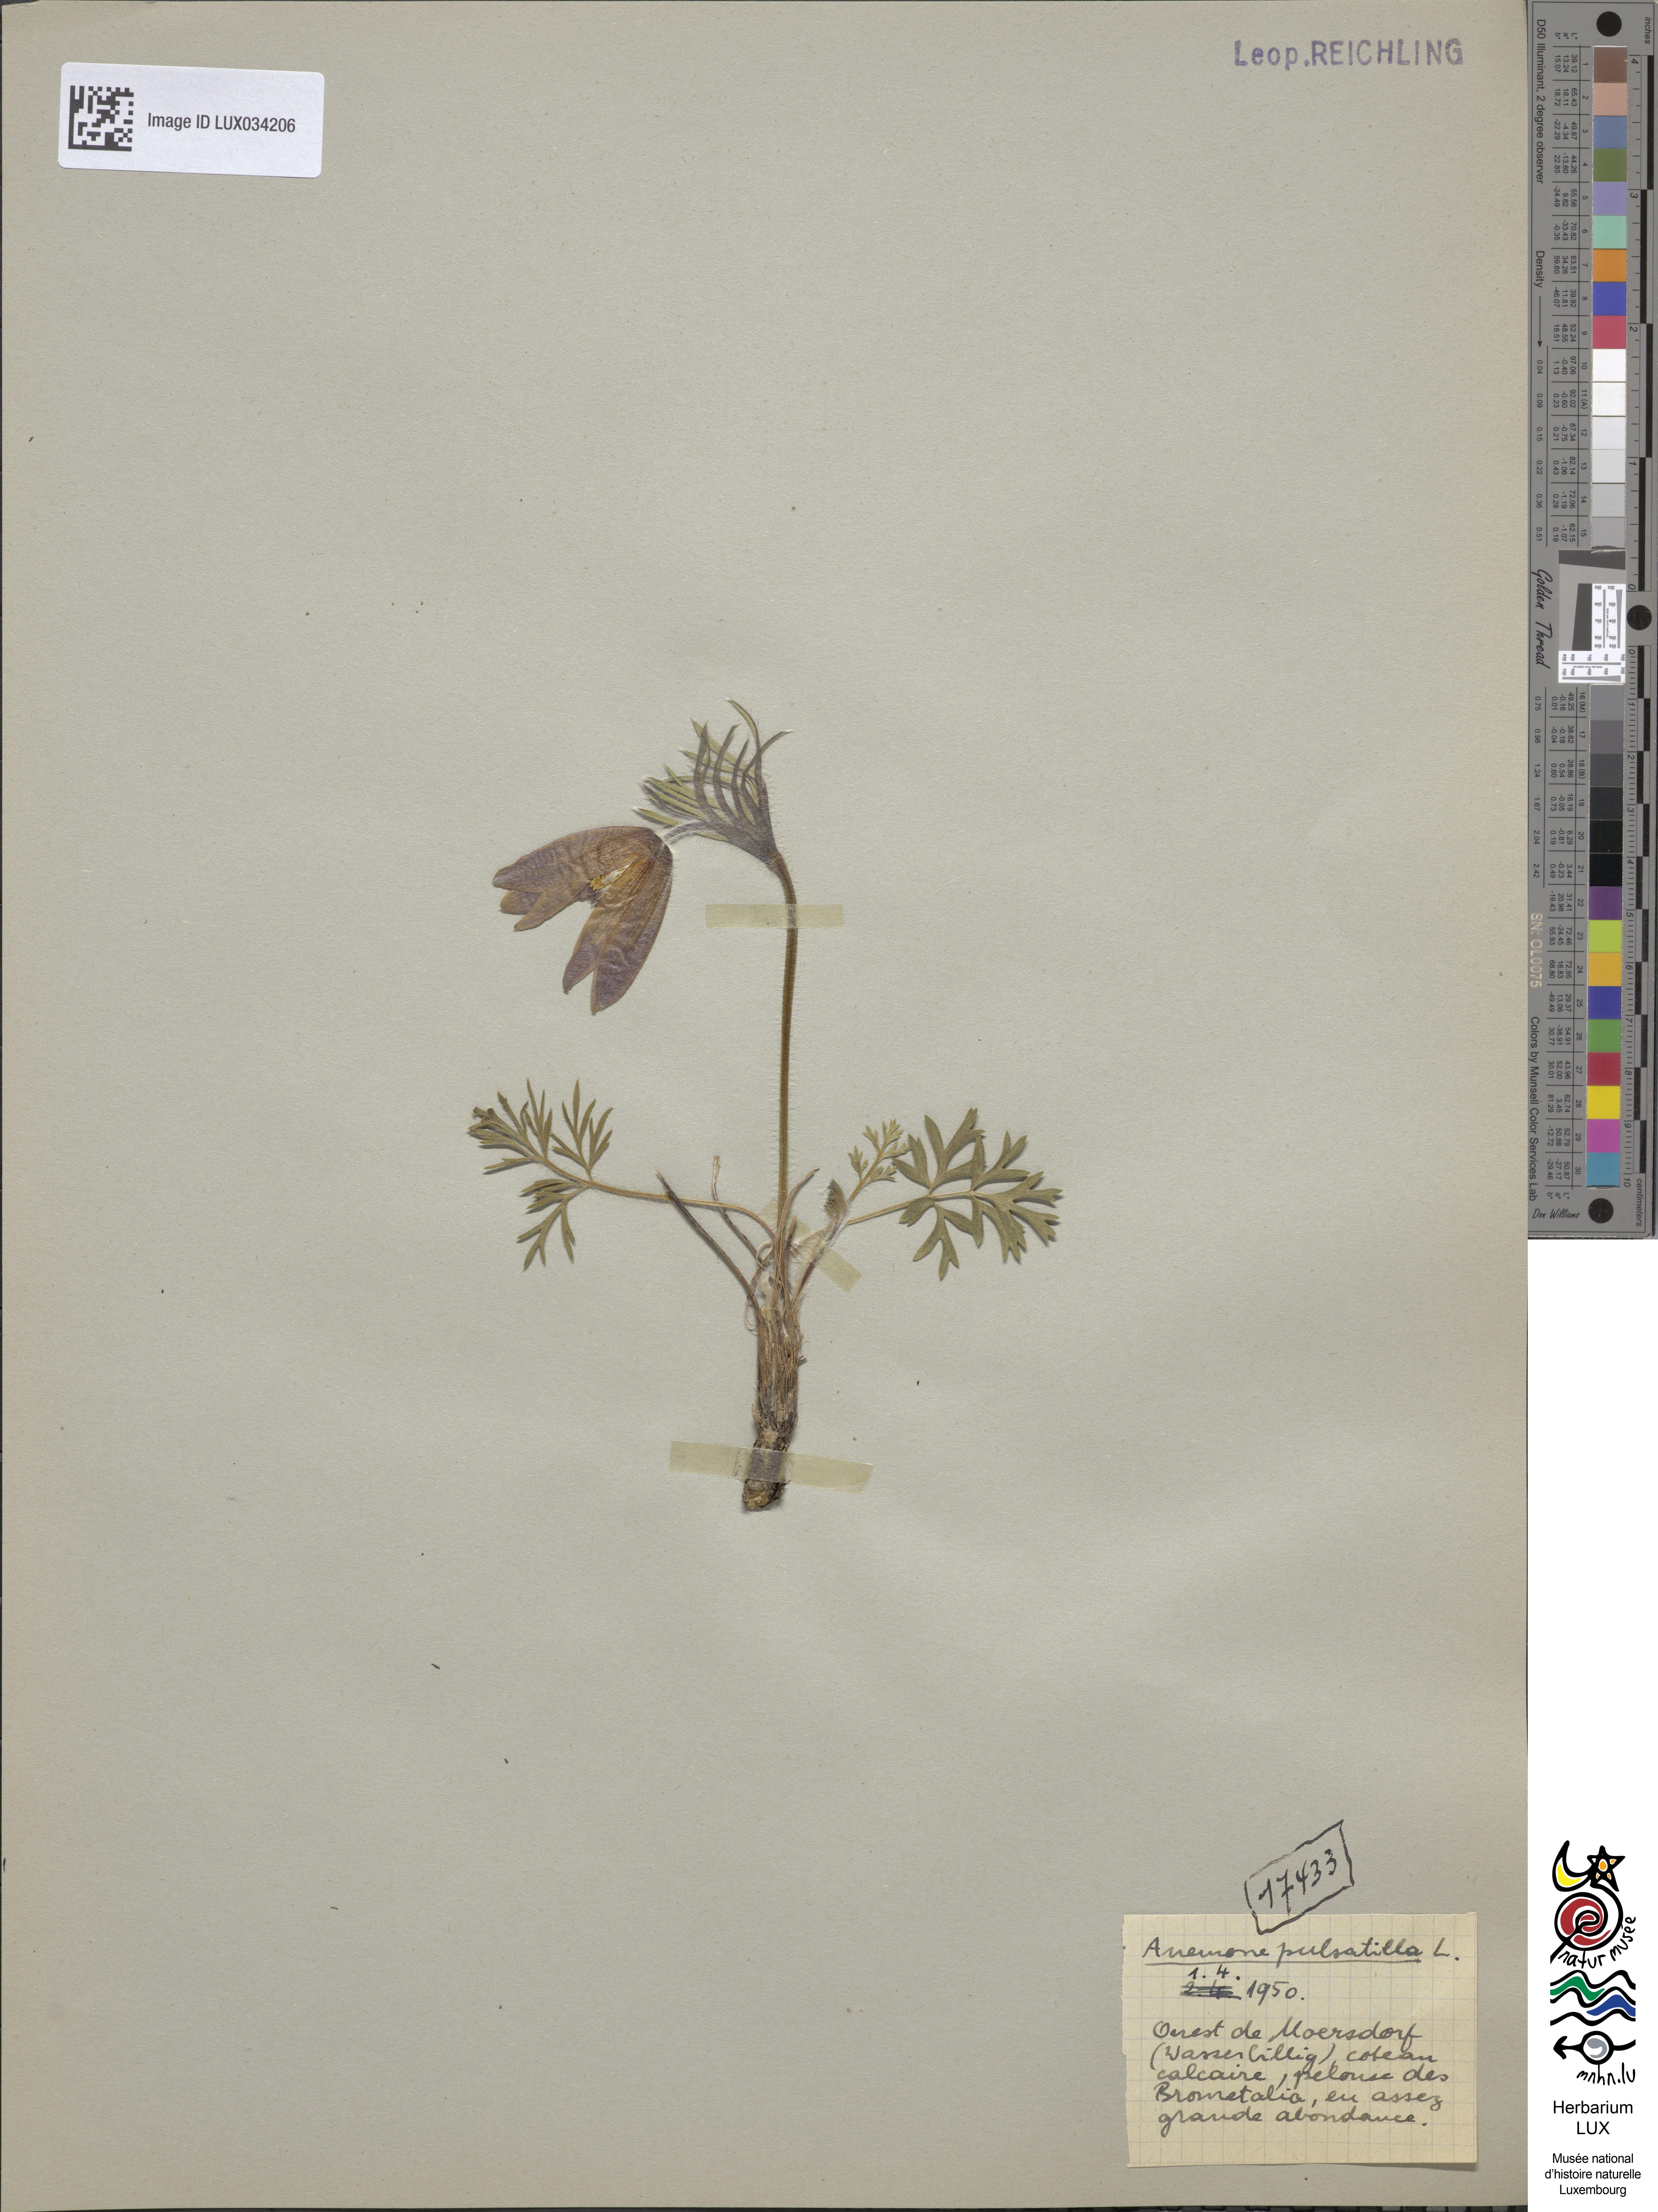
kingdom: Plantae
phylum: Tracheophyta
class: Magnoliopsida
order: Ranunculales
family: Ranunculaceae
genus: Pulsatilla
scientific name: Pulsatilla vulgaris
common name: Pasqueflower
